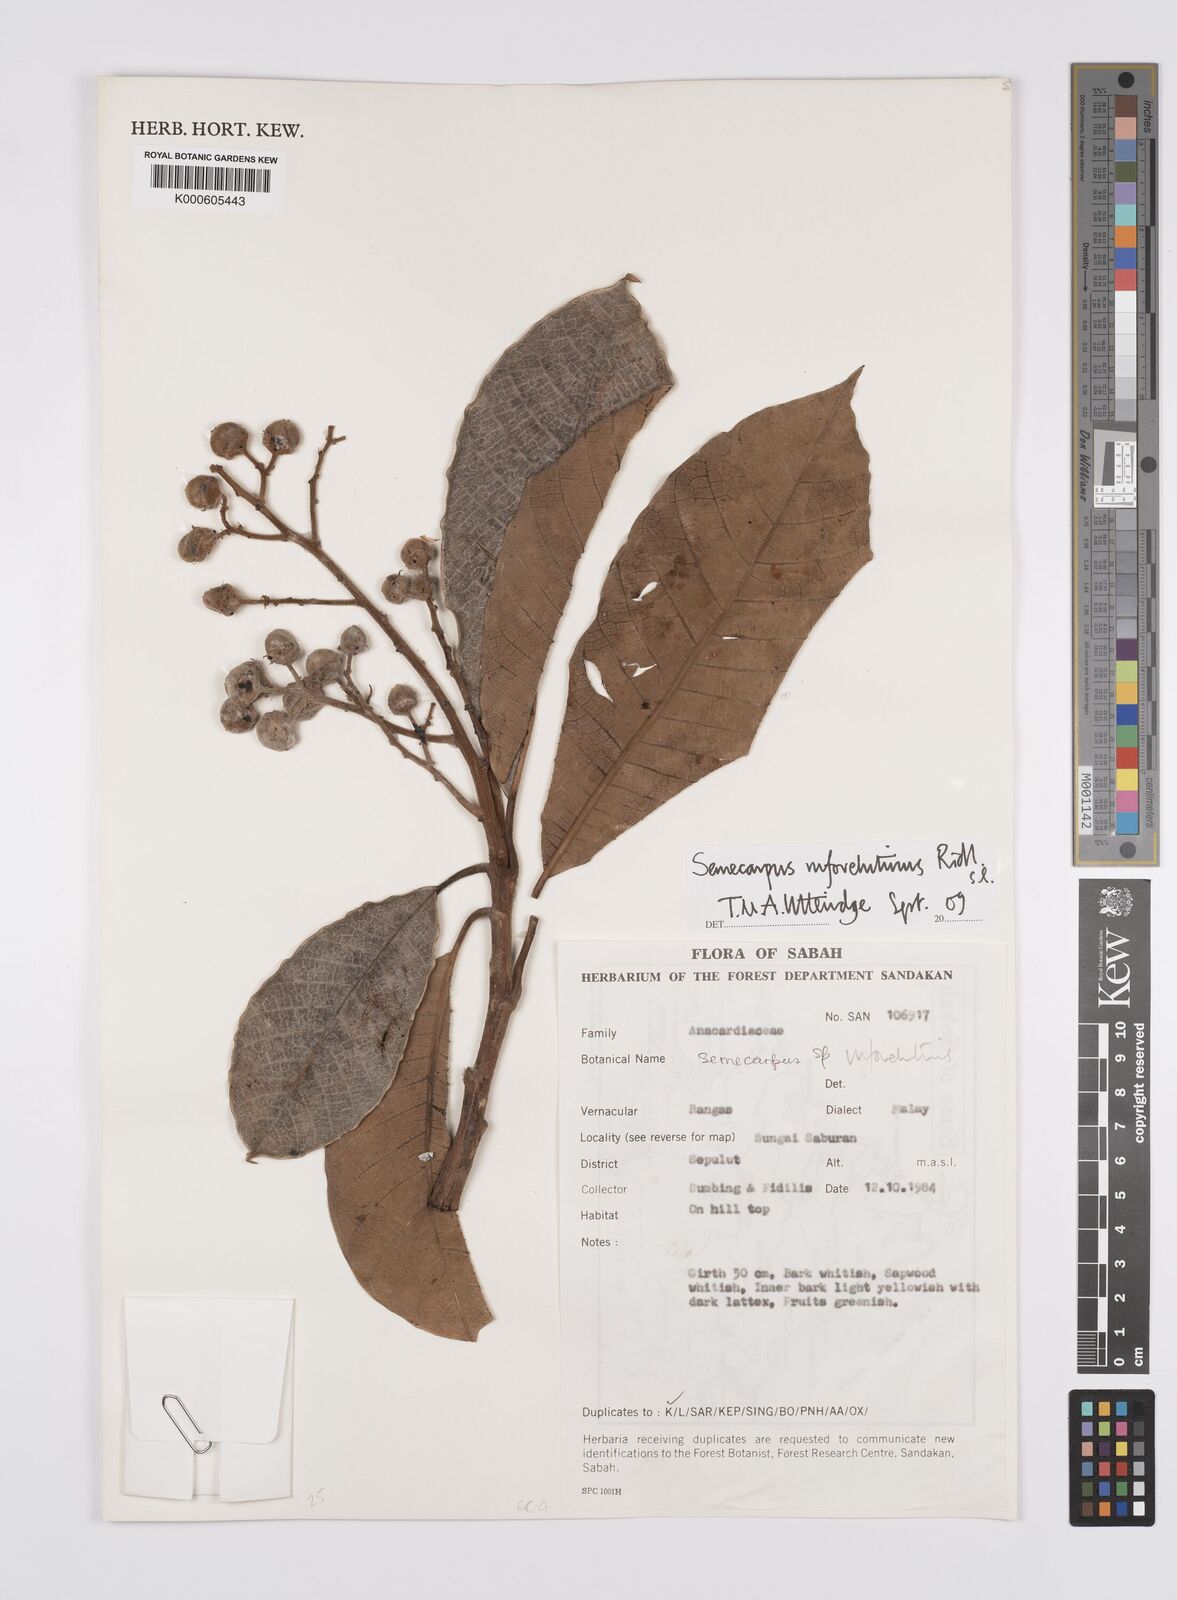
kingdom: Plantae
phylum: Tracheophyta
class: Magnoliopsida
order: Sapindales
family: Anacardiaceae
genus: Semecarpus
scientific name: Semecarpus rufovelutinus
